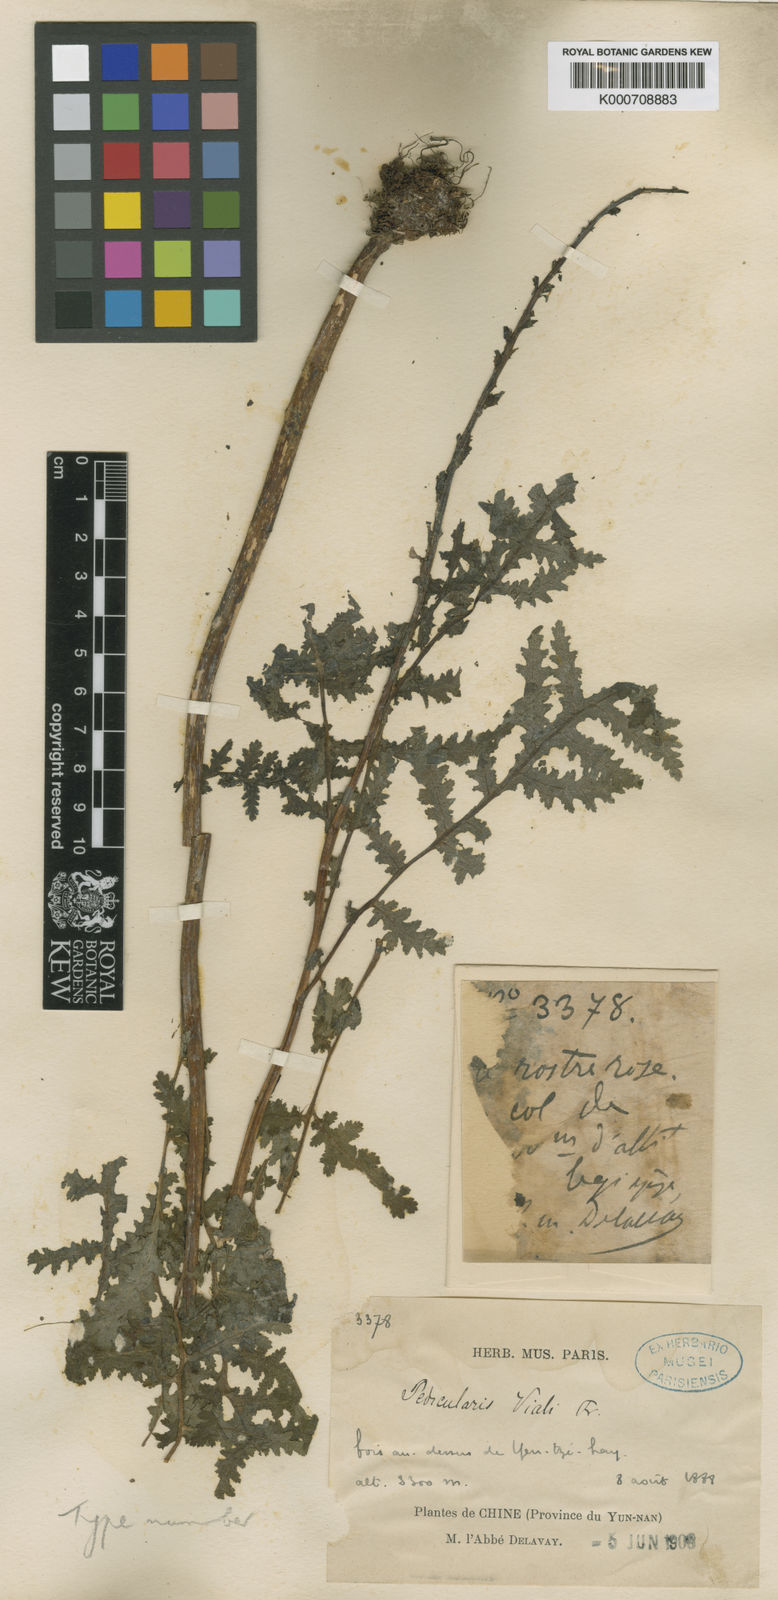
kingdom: Plantae
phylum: Tracheophyta
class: Magnoliopsida
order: Lamiales
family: Orobanchaceae
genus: Pedicularis
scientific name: Pedicularis
